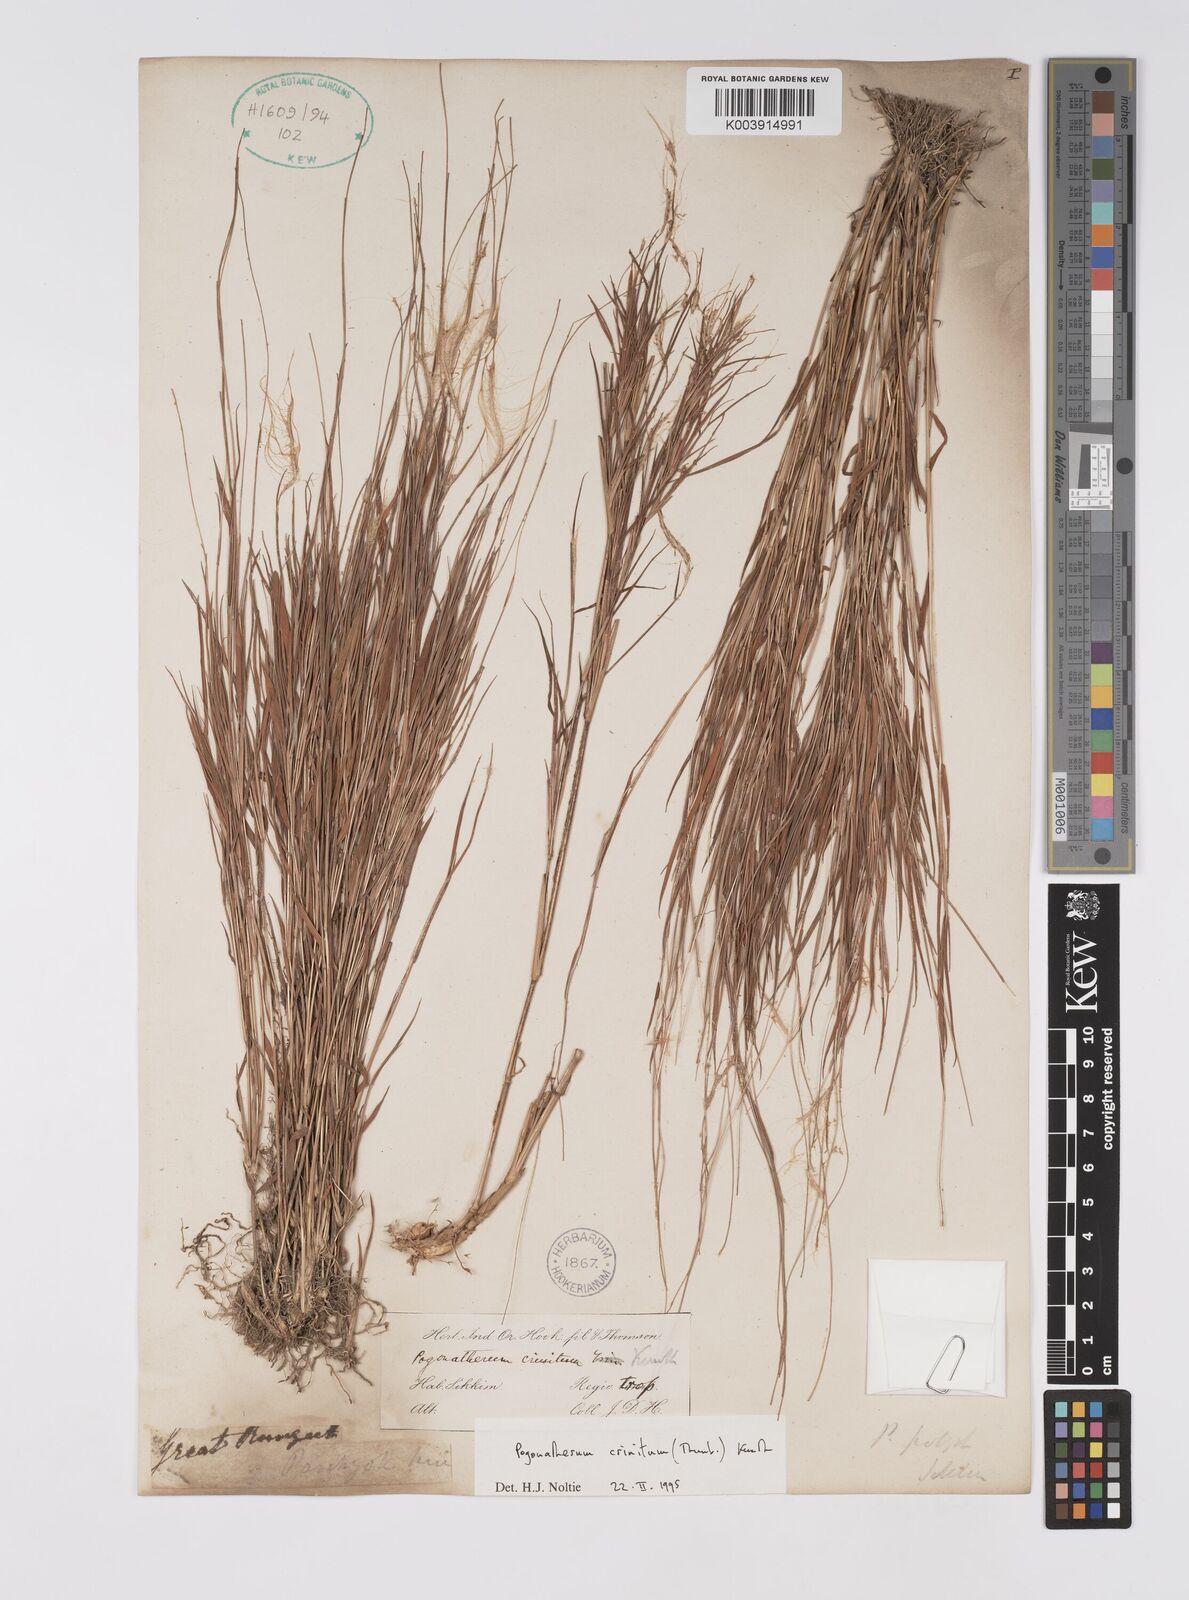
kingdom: Plantae
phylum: Tracheophyta
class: Liliopsida
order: Poales
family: Poaceae
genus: Pogonatherum
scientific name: Pogonatherum crinitum
